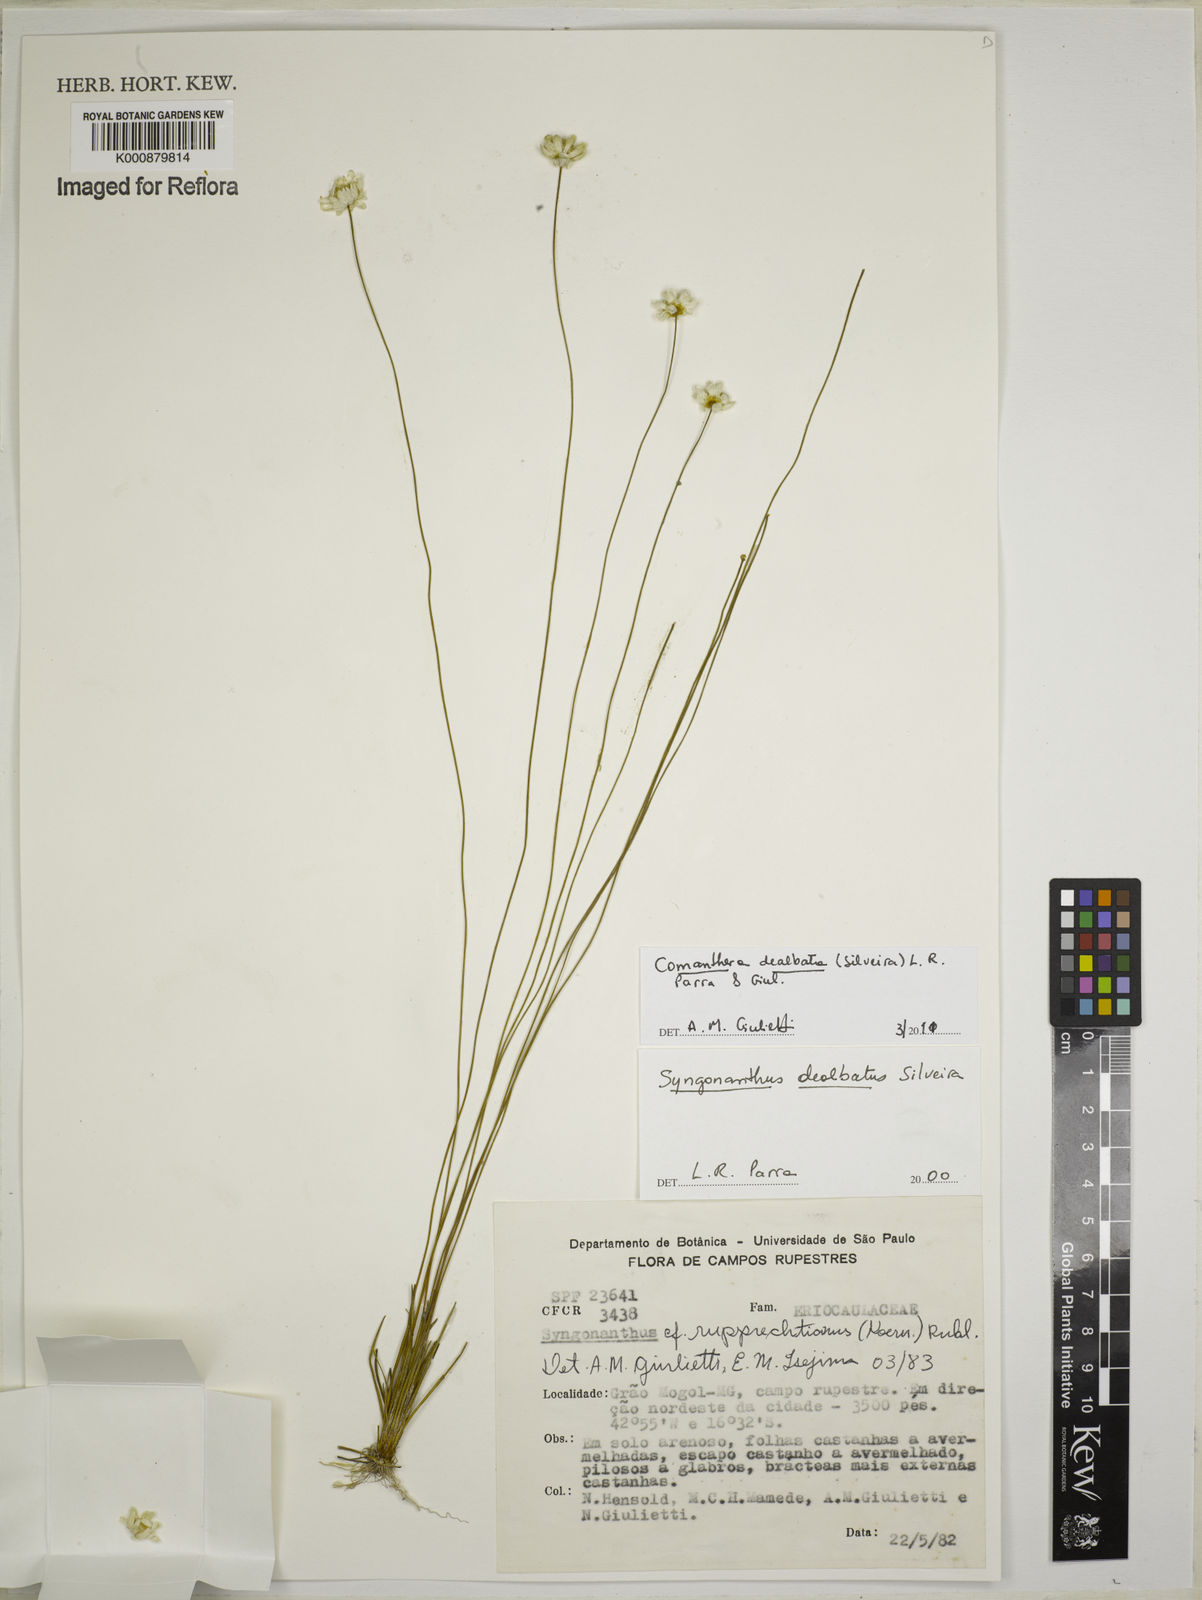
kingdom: Plantae
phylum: Tracheophyta
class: Liliopsida
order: Poales
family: Eriocaulaceae
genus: Comanthera
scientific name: Comanthera dealbata
